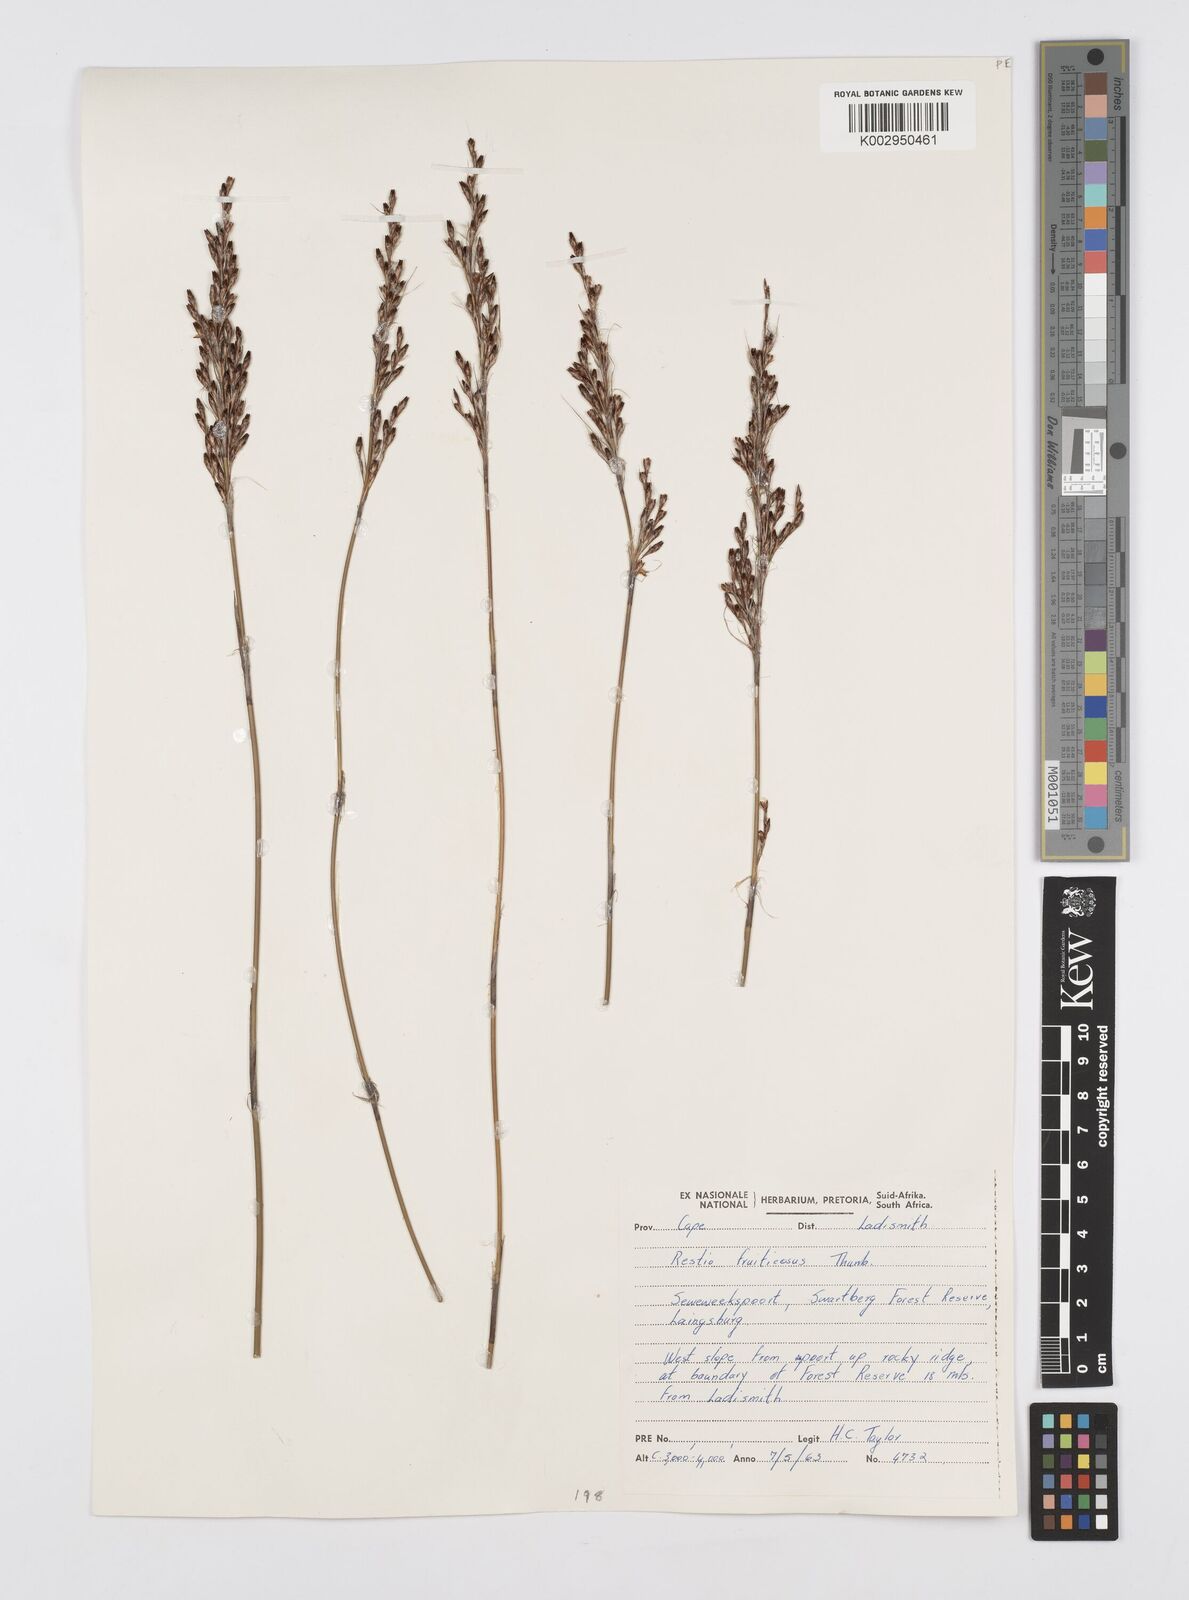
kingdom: Plantae
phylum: Tracheophyta
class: Liliopsida
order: Poales
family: Restionaceae
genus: Rhodocoma
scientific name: Rhodocoma fruticosa
